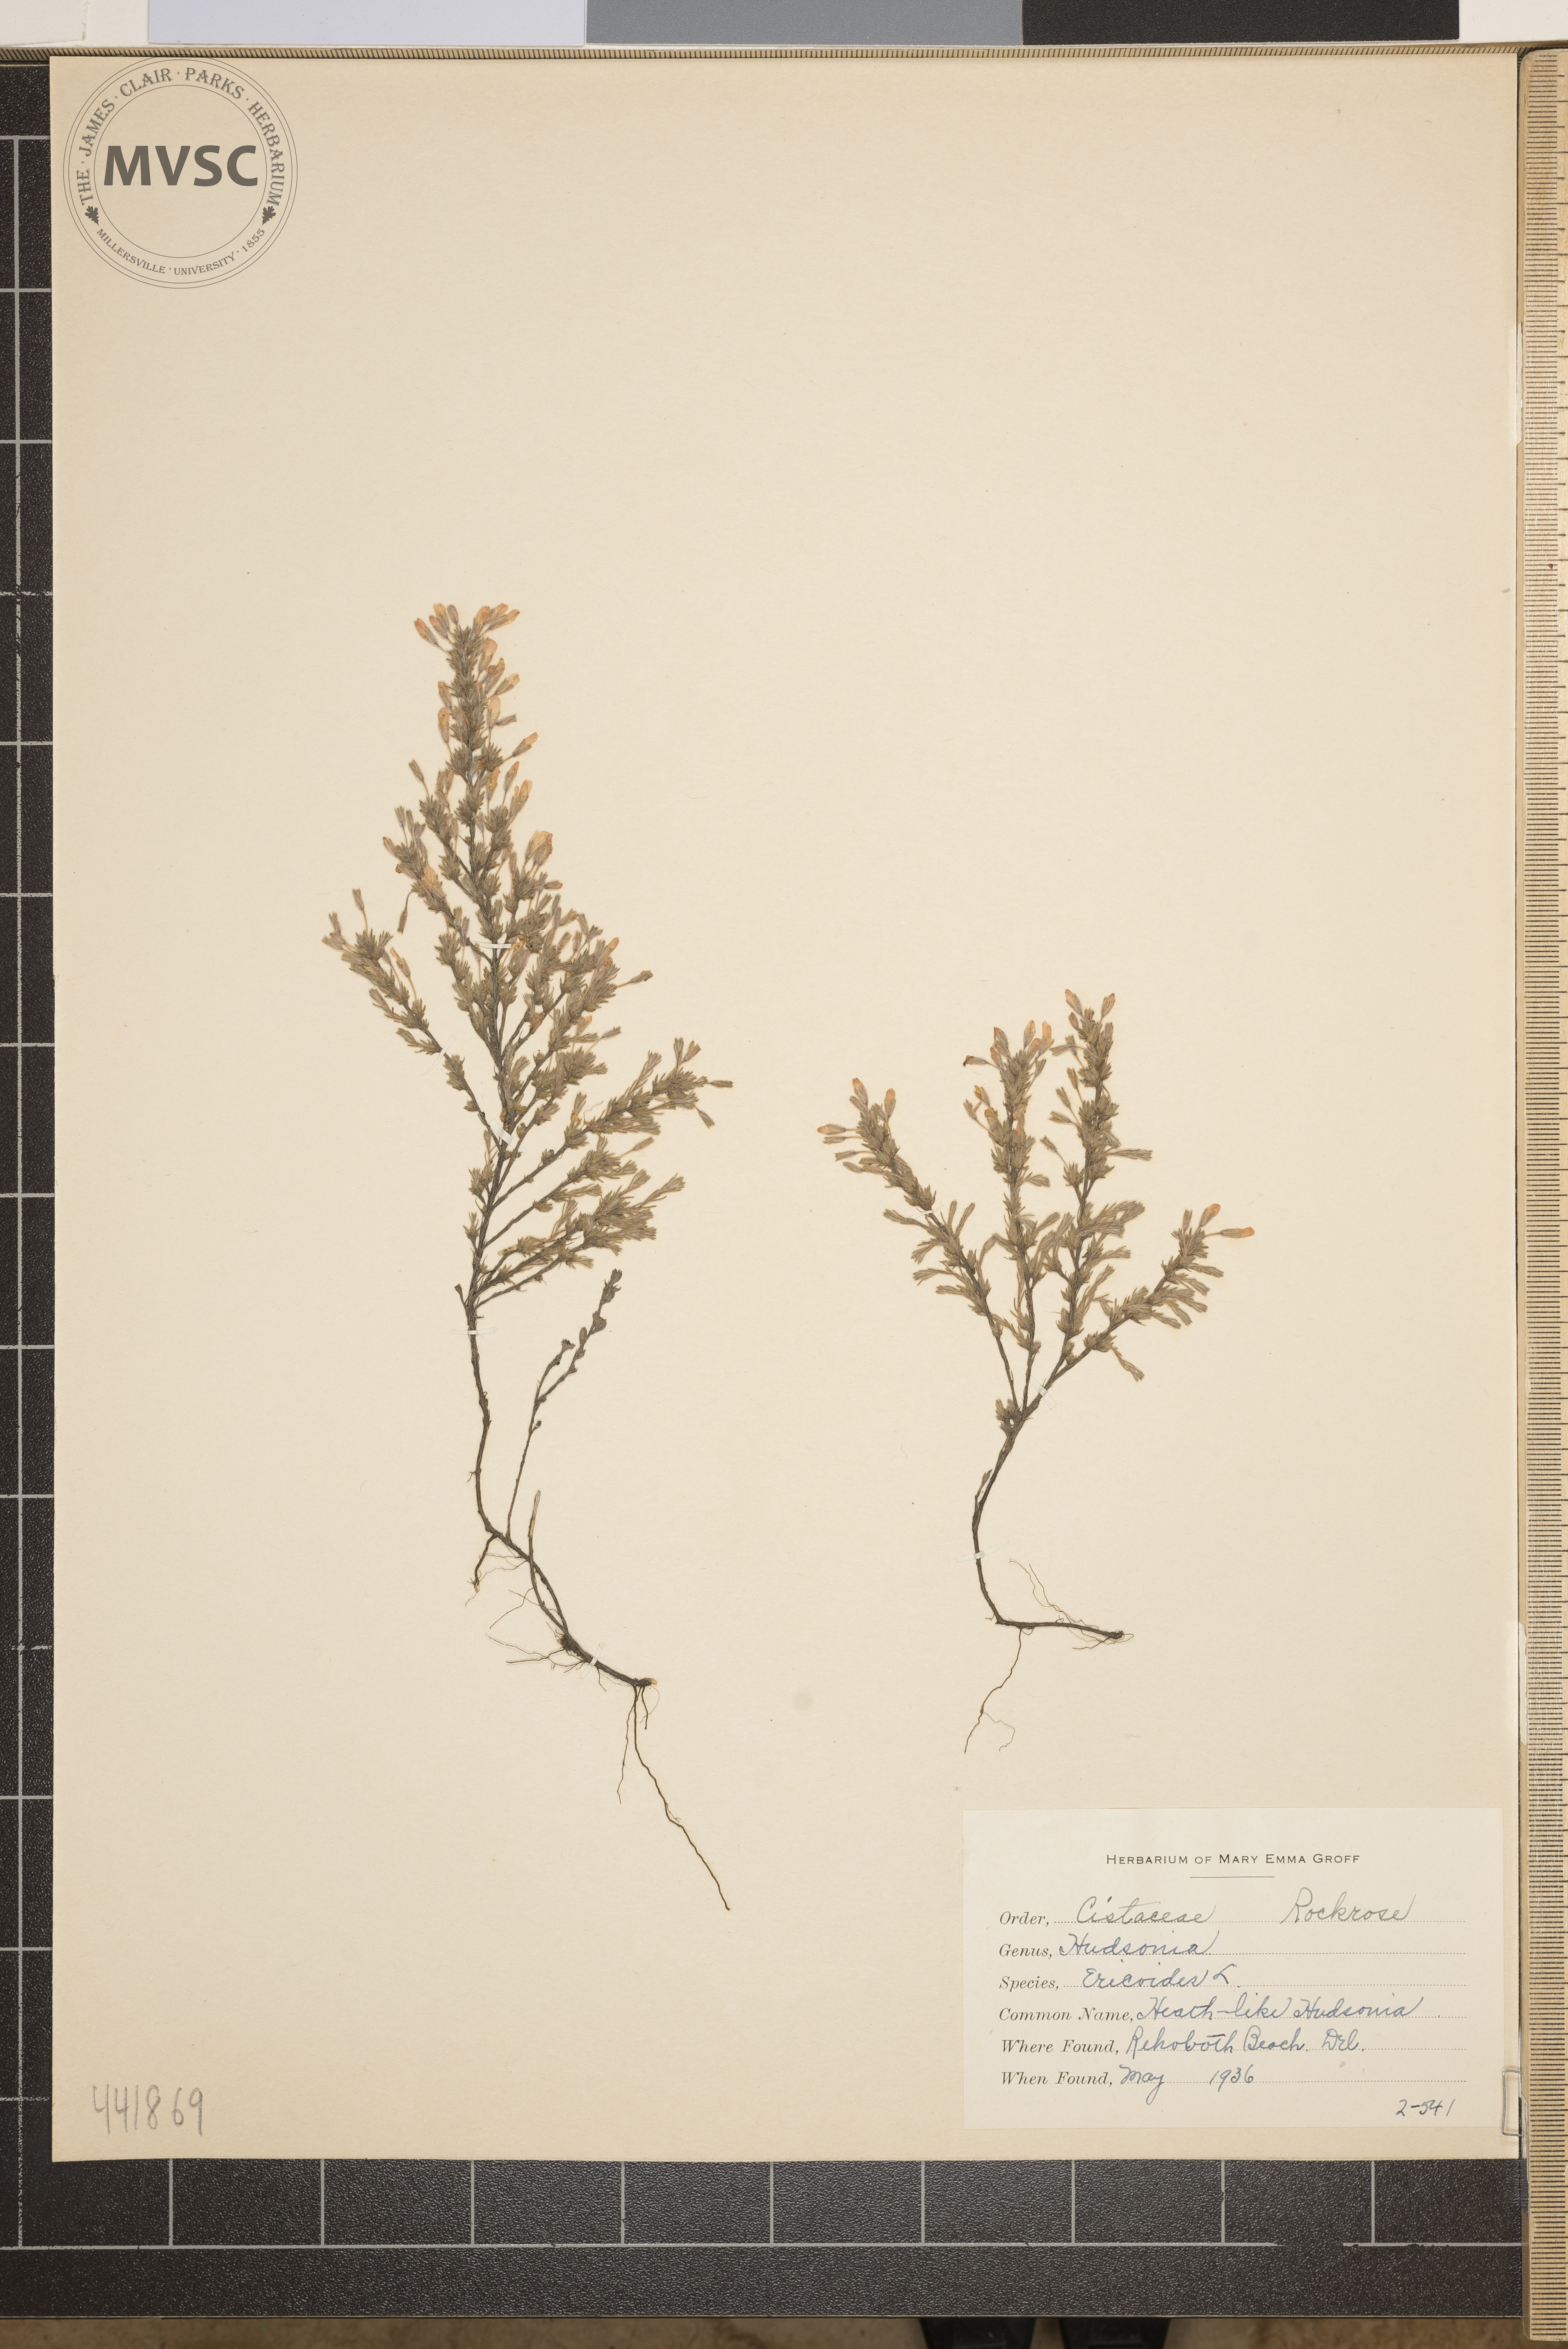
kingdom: Plantae
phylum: Tracheophyta
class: Magnoliopsida
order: Malvales
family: Cistaceae
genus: Hudsonia
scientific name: Hudsonia ericoides
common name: Heath-like hudsonia
